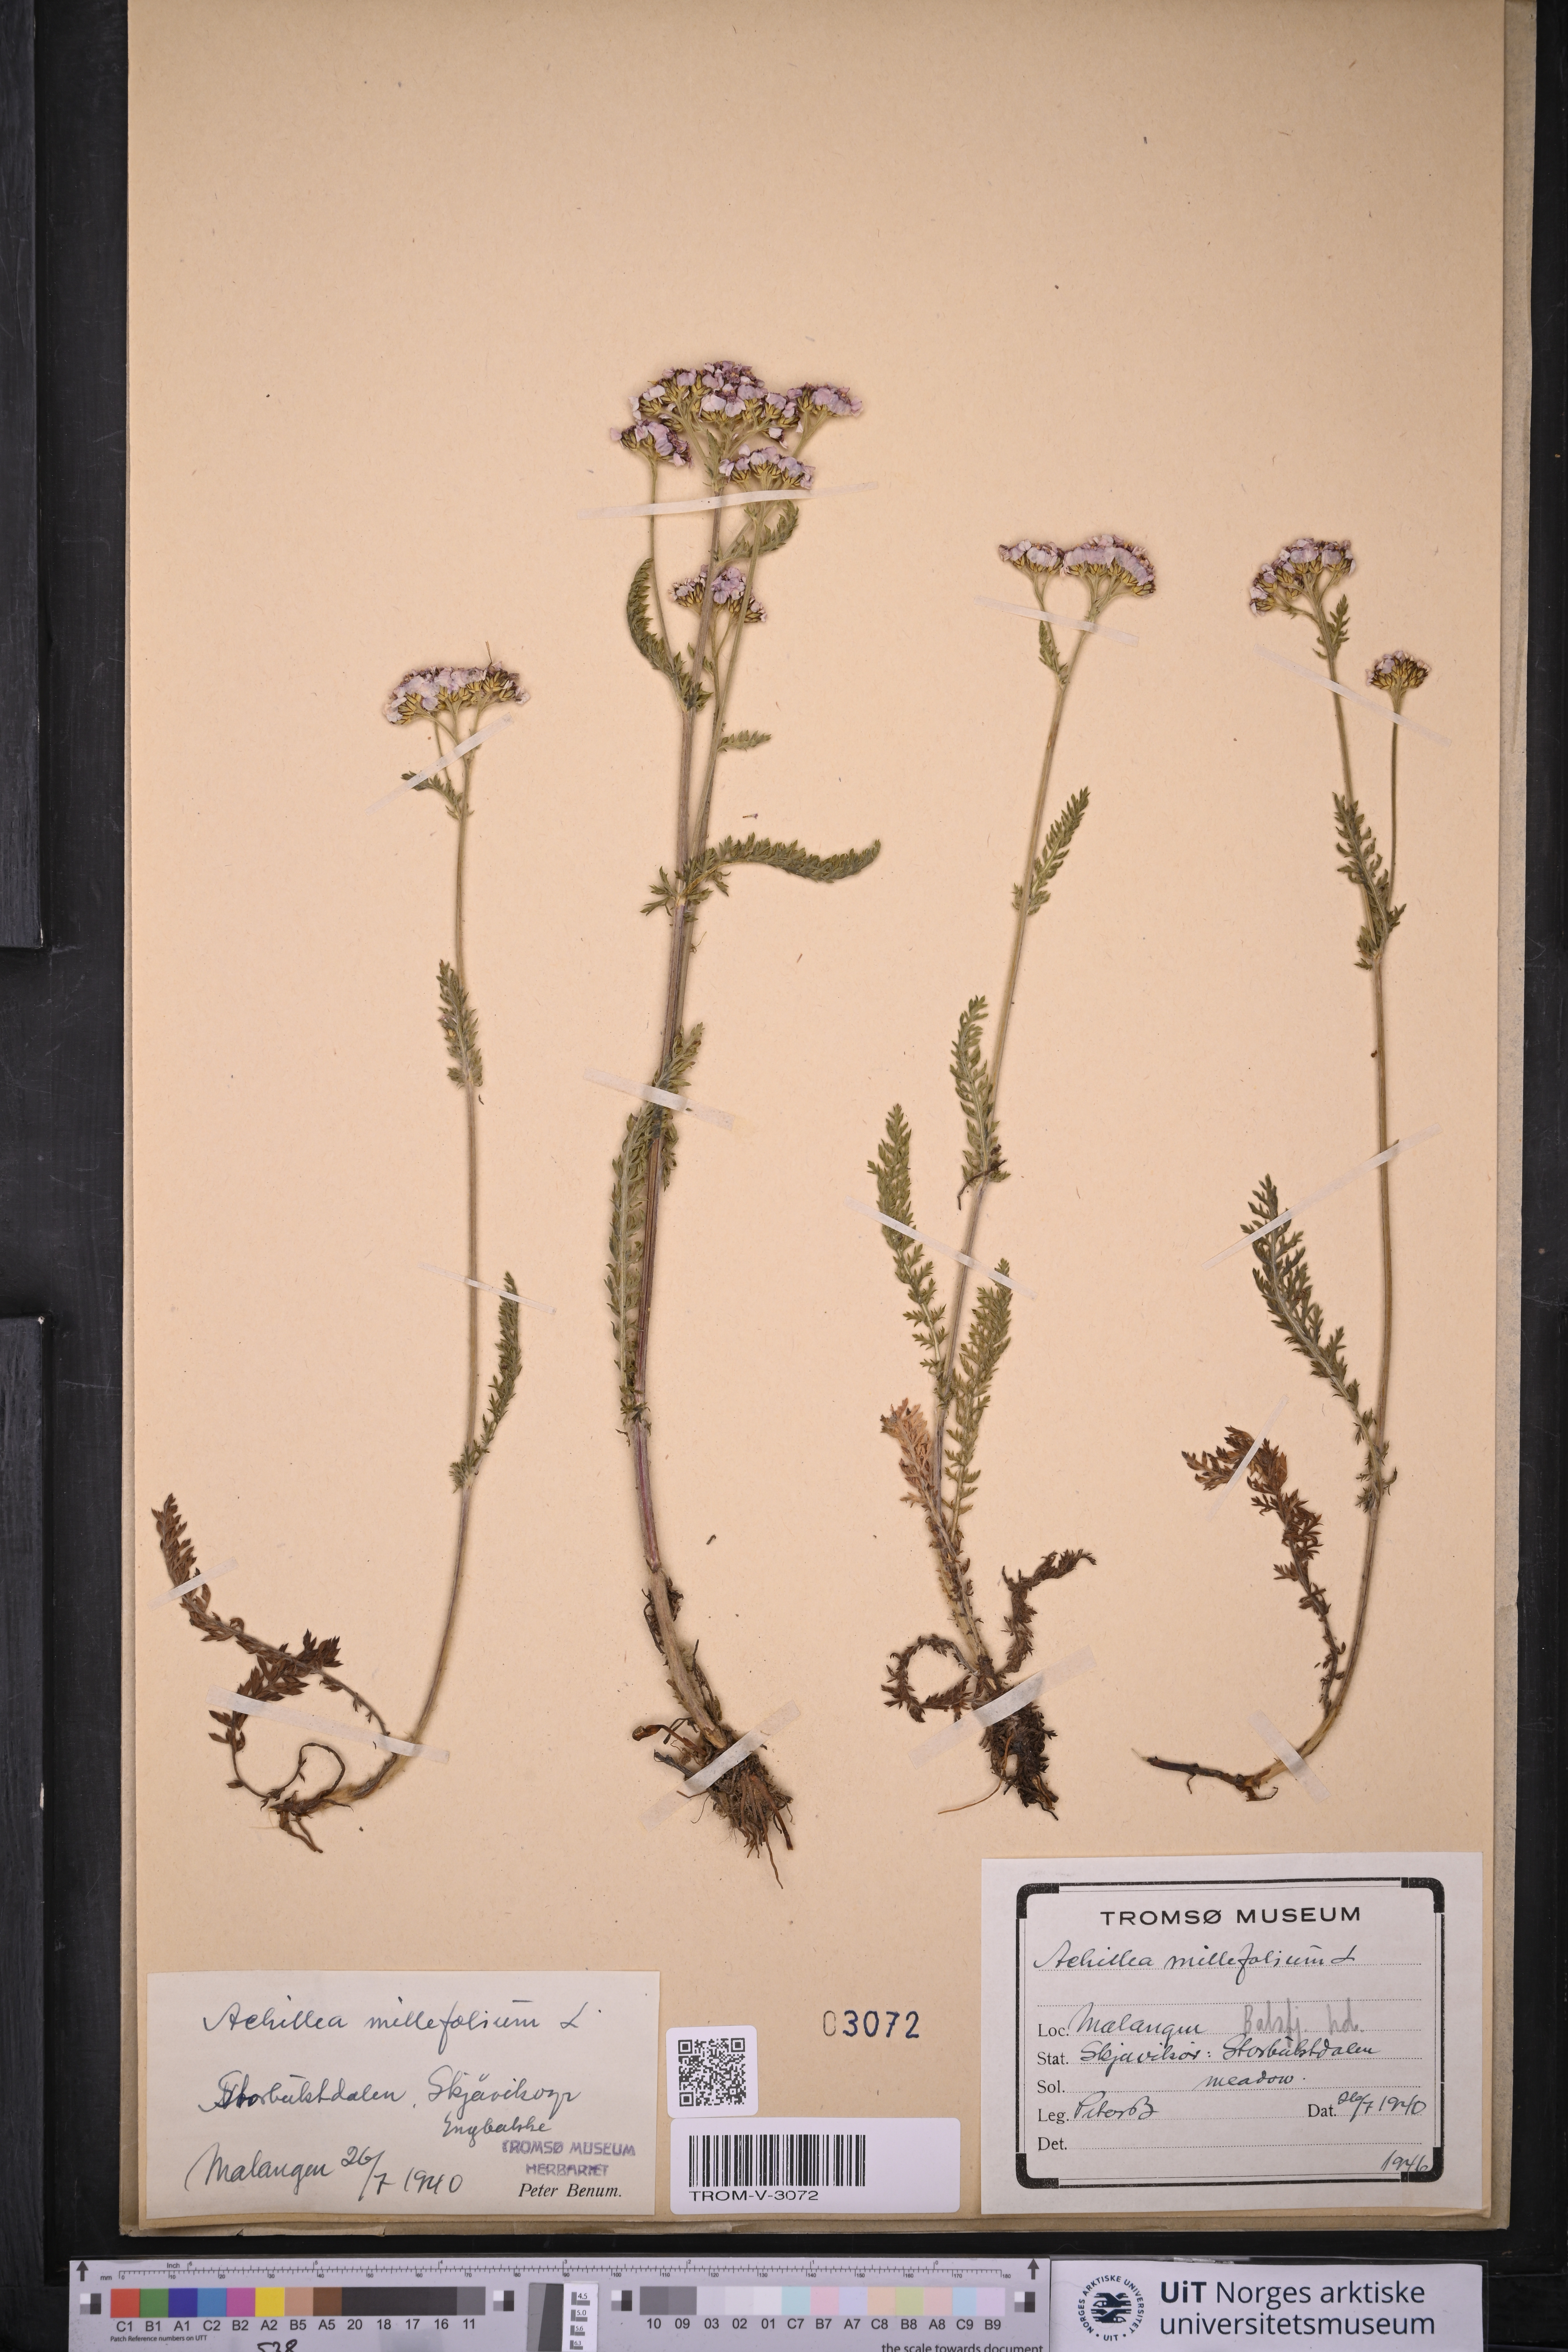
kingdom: Plantae
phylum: Tracheophyta
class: Magnoliopsida
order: Asterales
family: Asteraceae
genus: Achillea
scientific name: Achillea millefolium
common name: Yarrow
